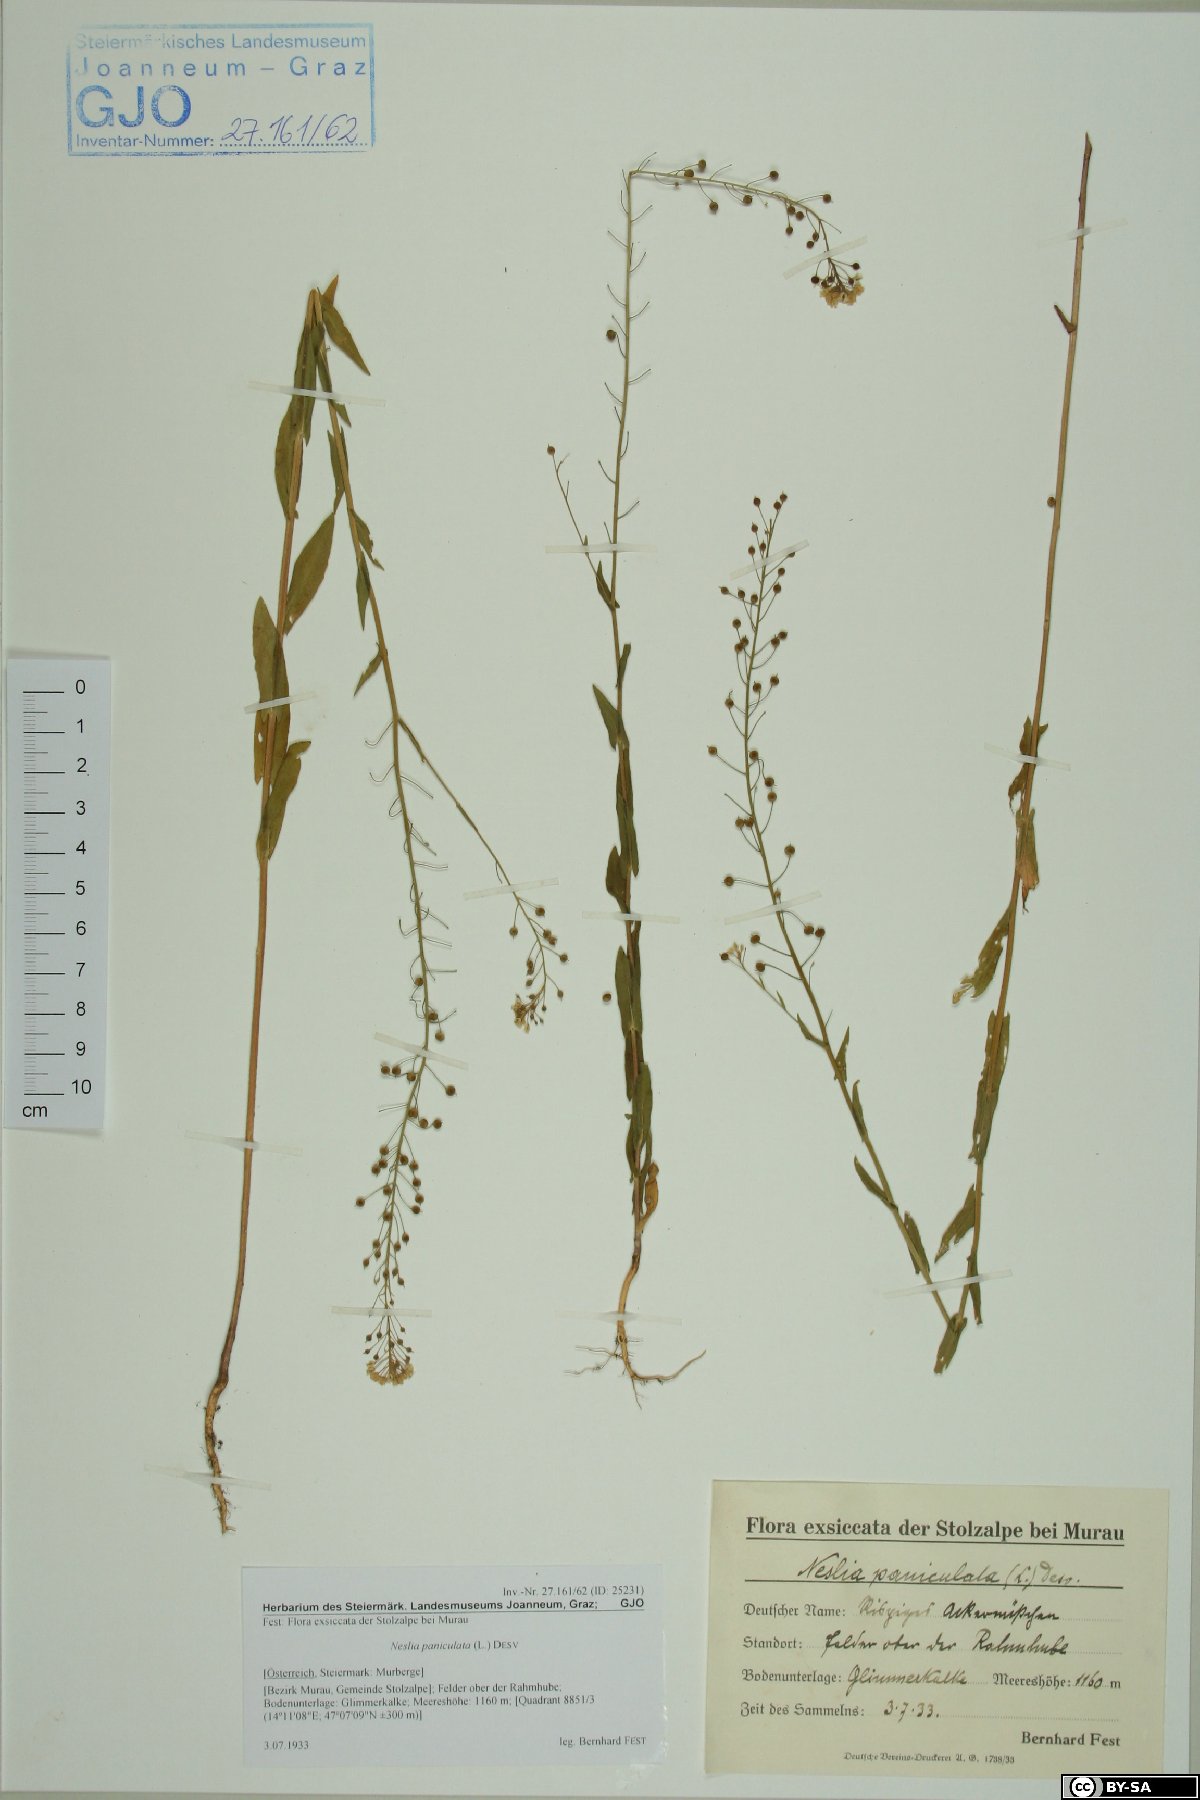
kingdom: Plantae
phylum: Tracheophyta
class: Magnoliopsida
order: Brassicales
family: Brassicaceae
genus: Neslia
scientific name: Neslia paniculata
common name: Ball mustard
